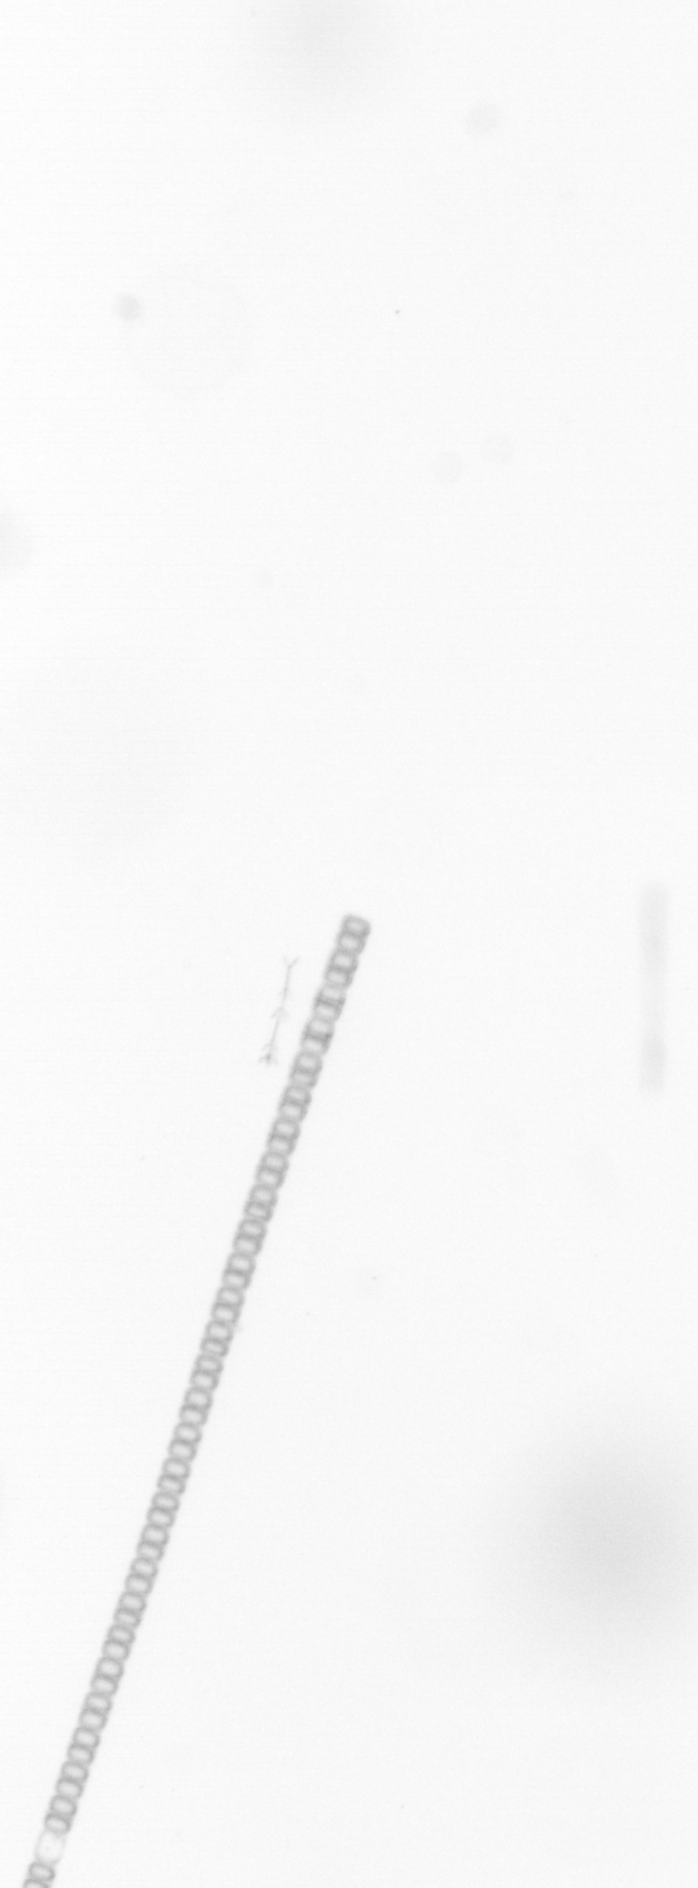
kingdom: Chromista
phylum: Ochrophyta
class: Bacillariophyceae
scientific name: Bacillariophyceae
